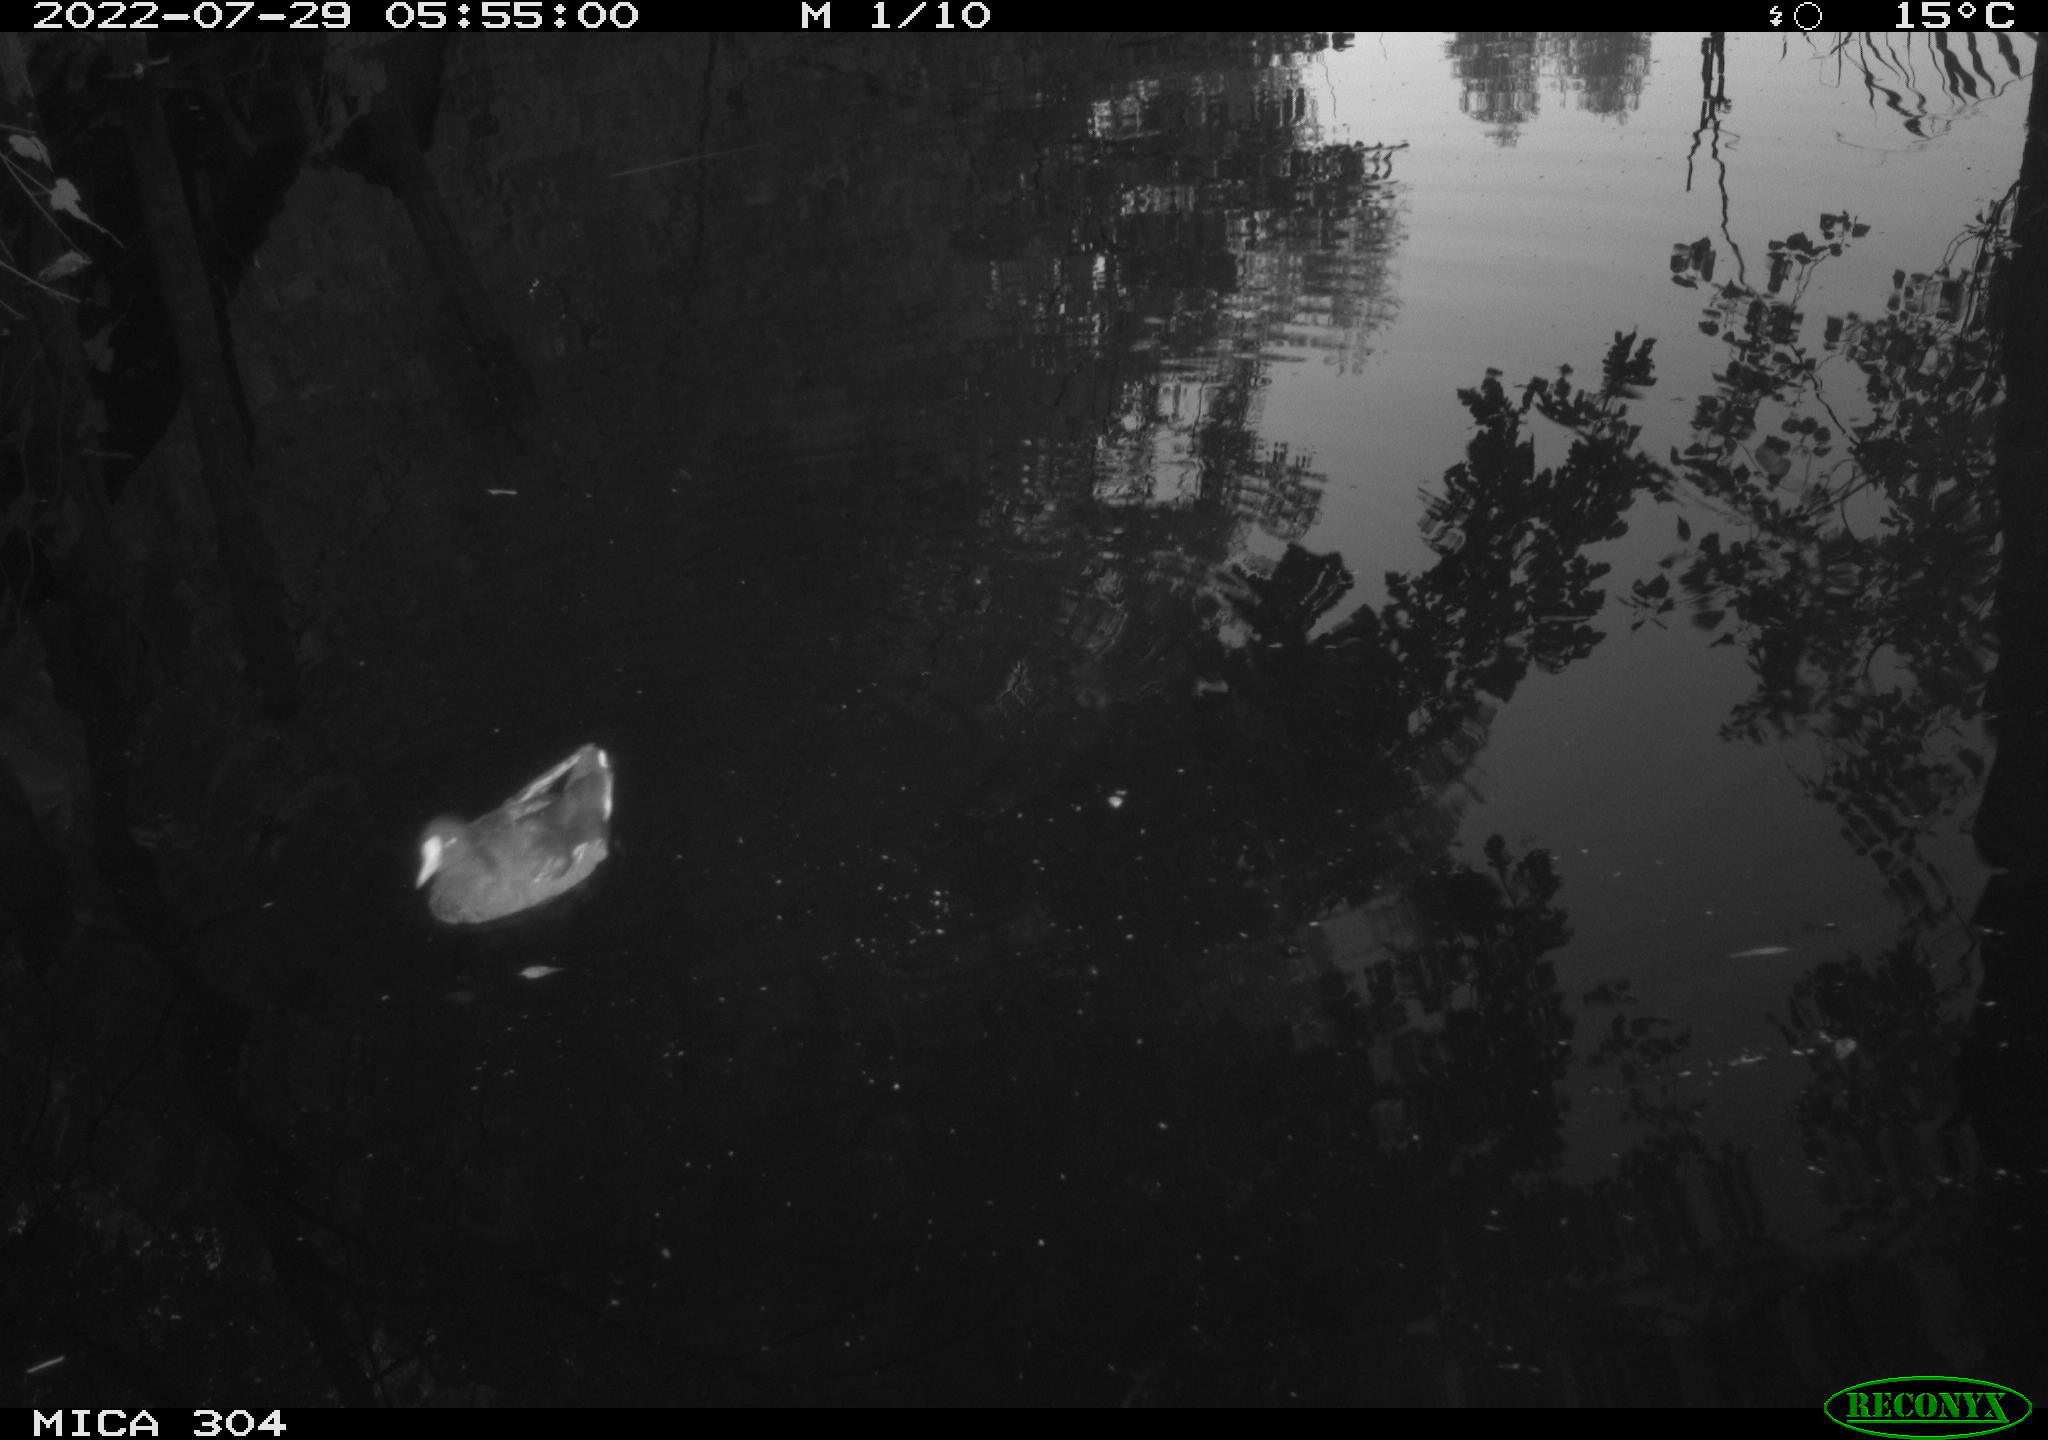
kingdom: Animalia
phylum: Chordata
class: Aves
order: Gruiformes
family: Rallidae
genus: Gallinula
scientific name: Gallinula chloropus
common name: Common moorhen
